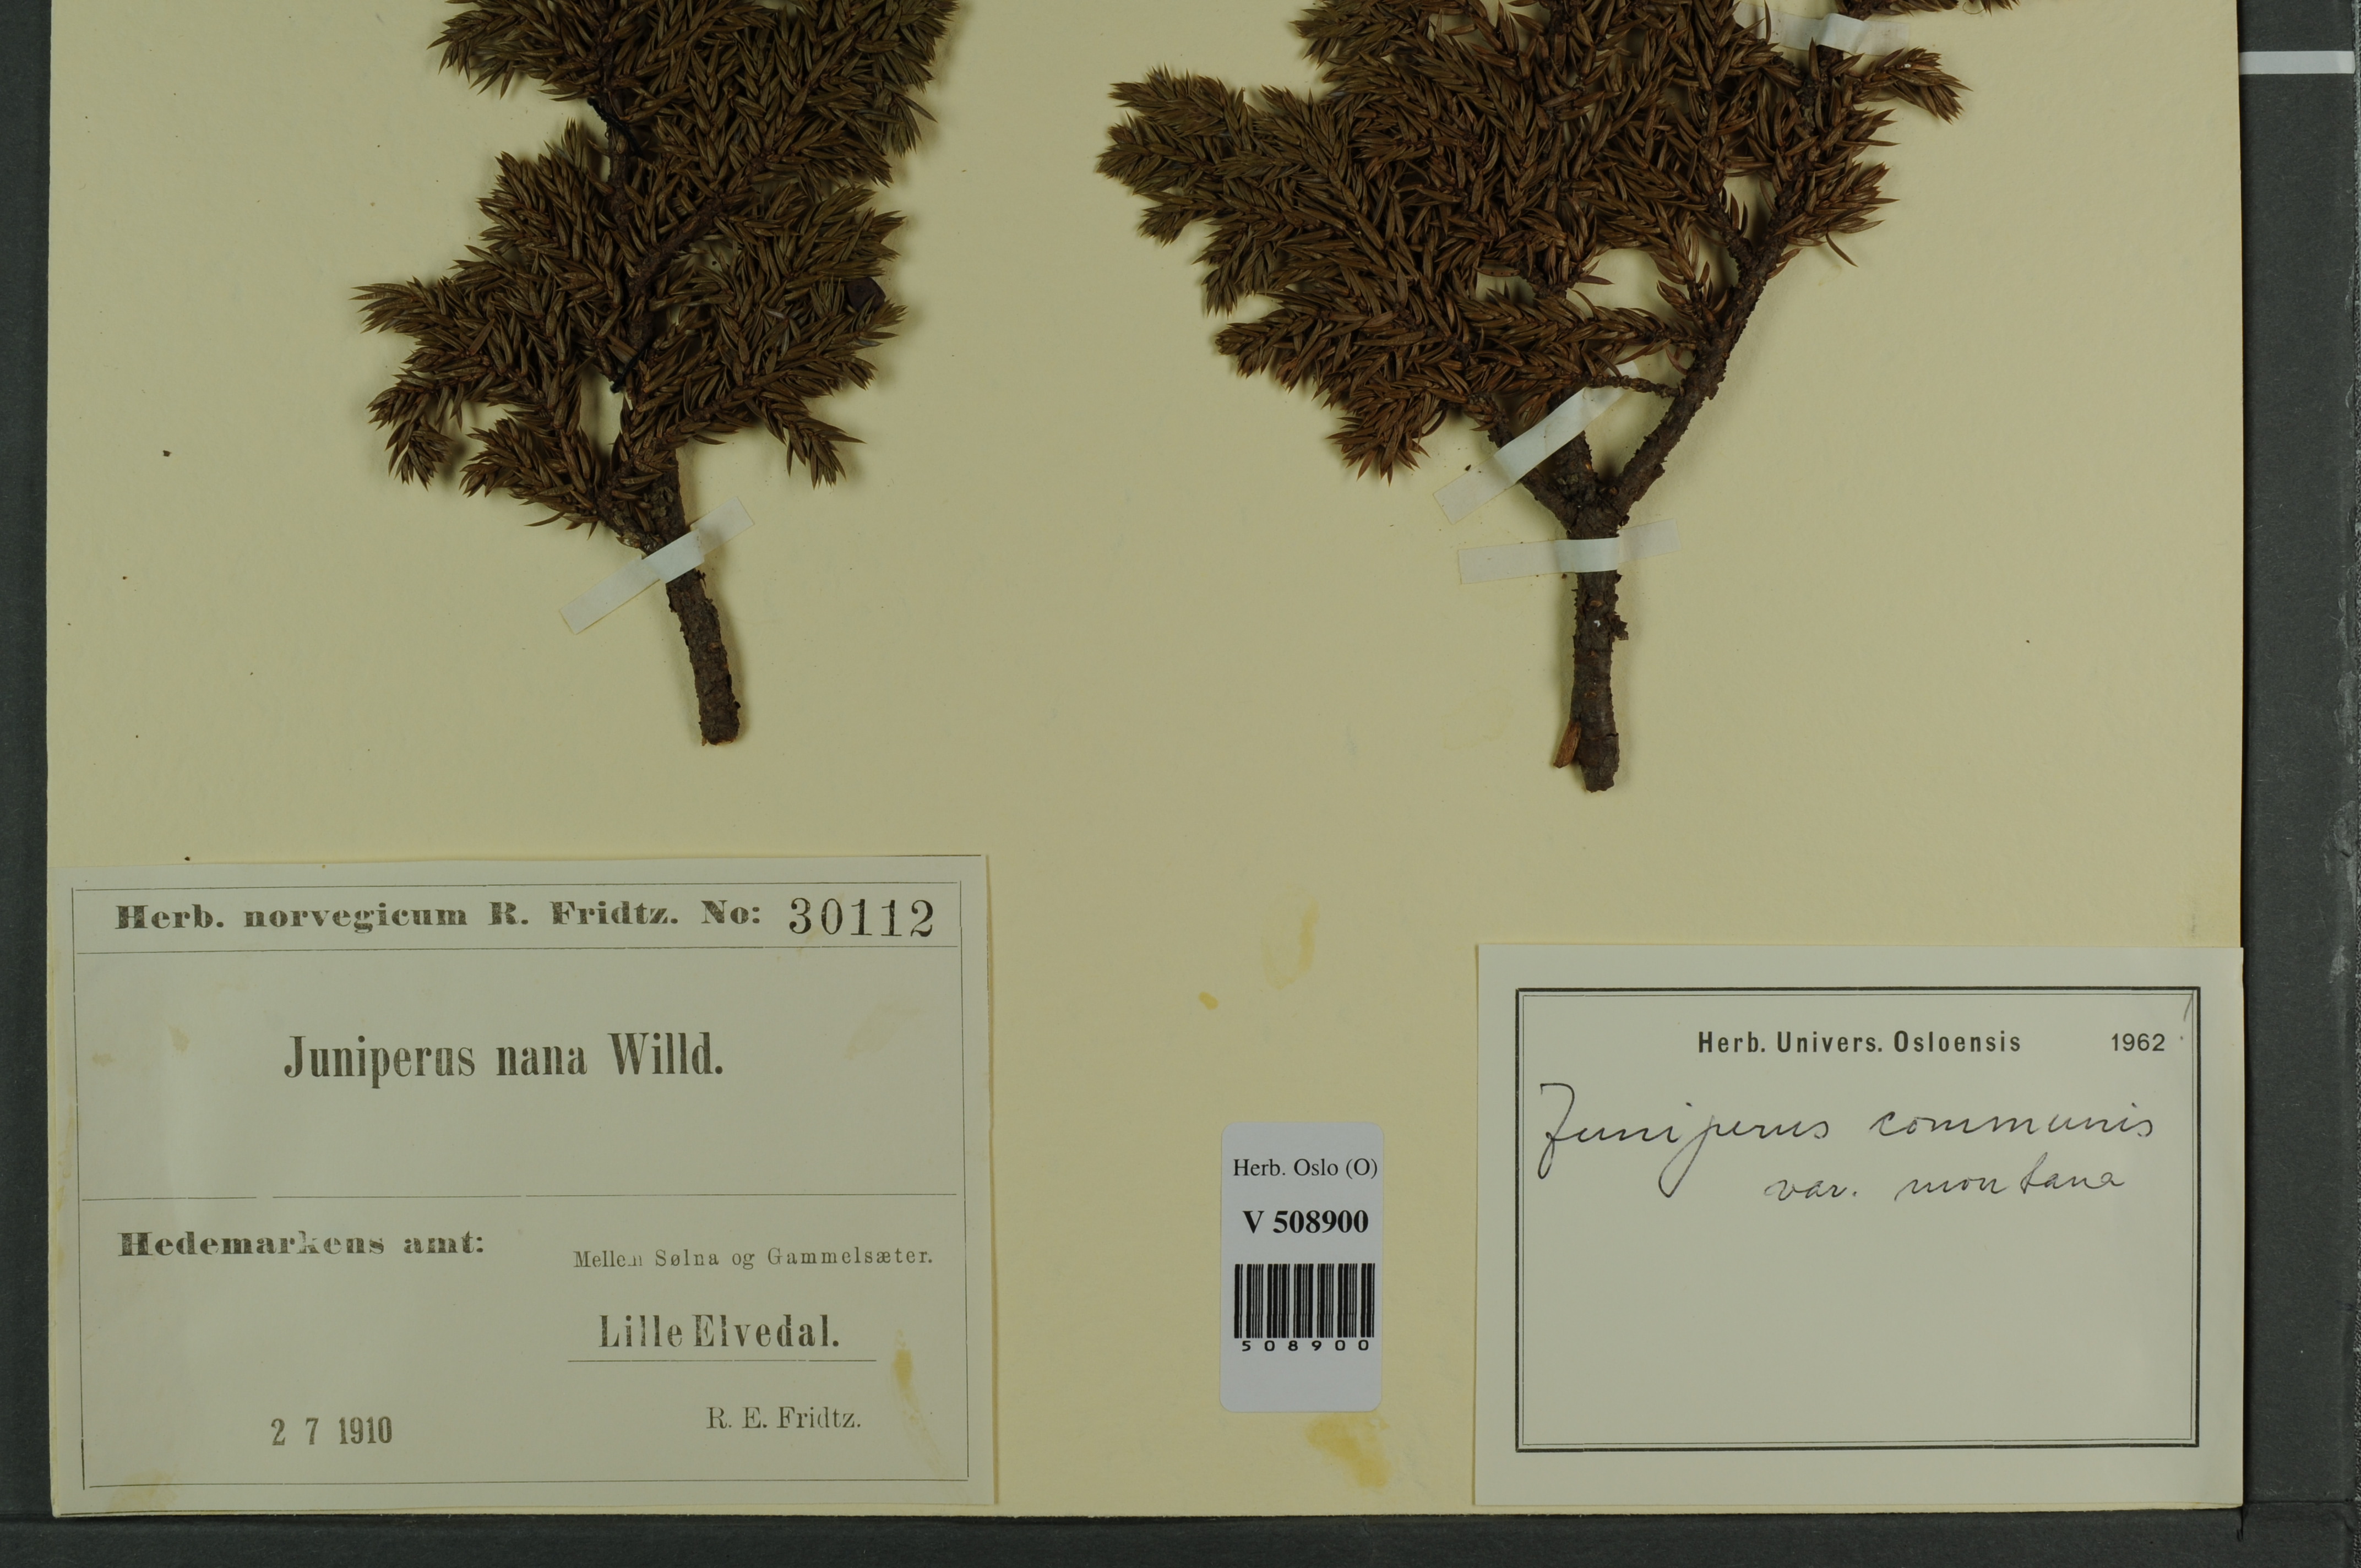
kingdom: Plantae
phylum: Tracheophyta
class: Pinopsida
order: Pinales
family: Cupressaceae
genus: Juniperus
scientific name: Juniperus communis
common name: Common juniper
